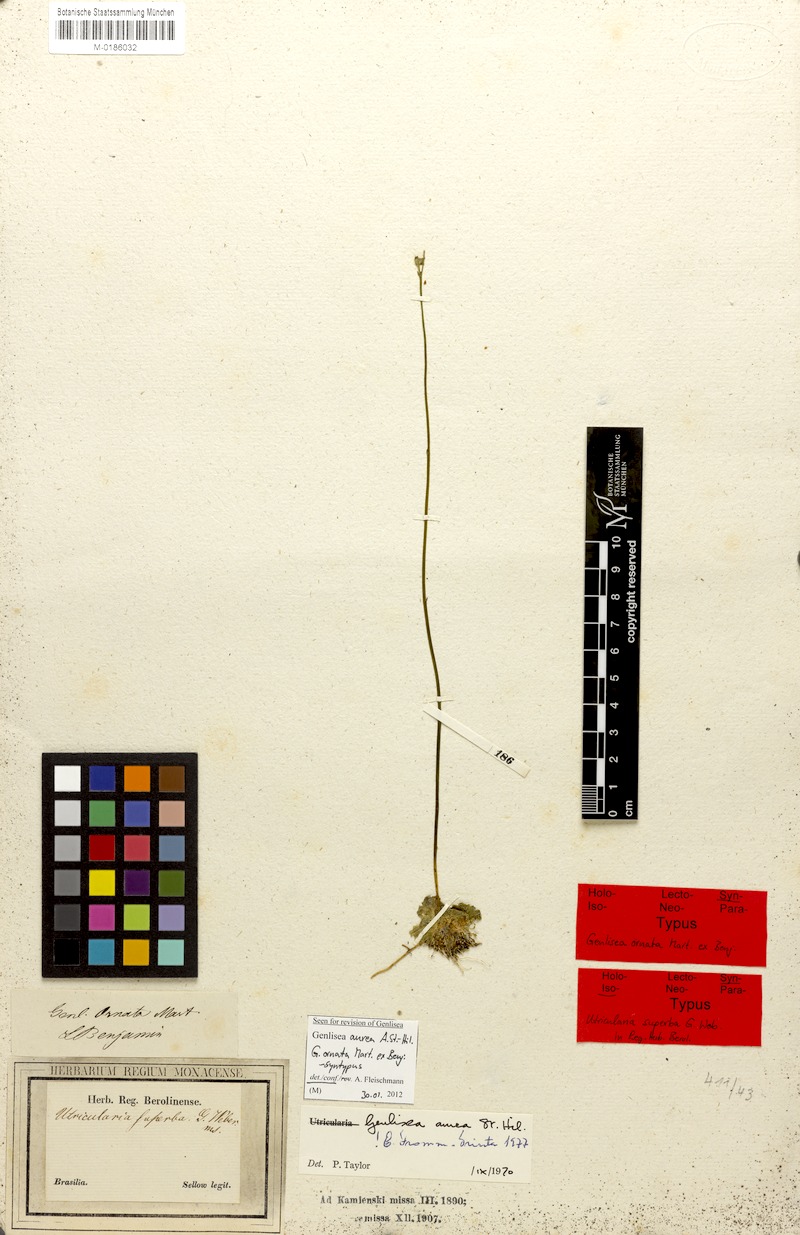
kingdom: Plantae
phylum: Tracheophyta
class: Magnoliopsida
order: Lamiales
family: Lentibulariaceae
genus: Genlisea
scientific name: Genlisea aurea
